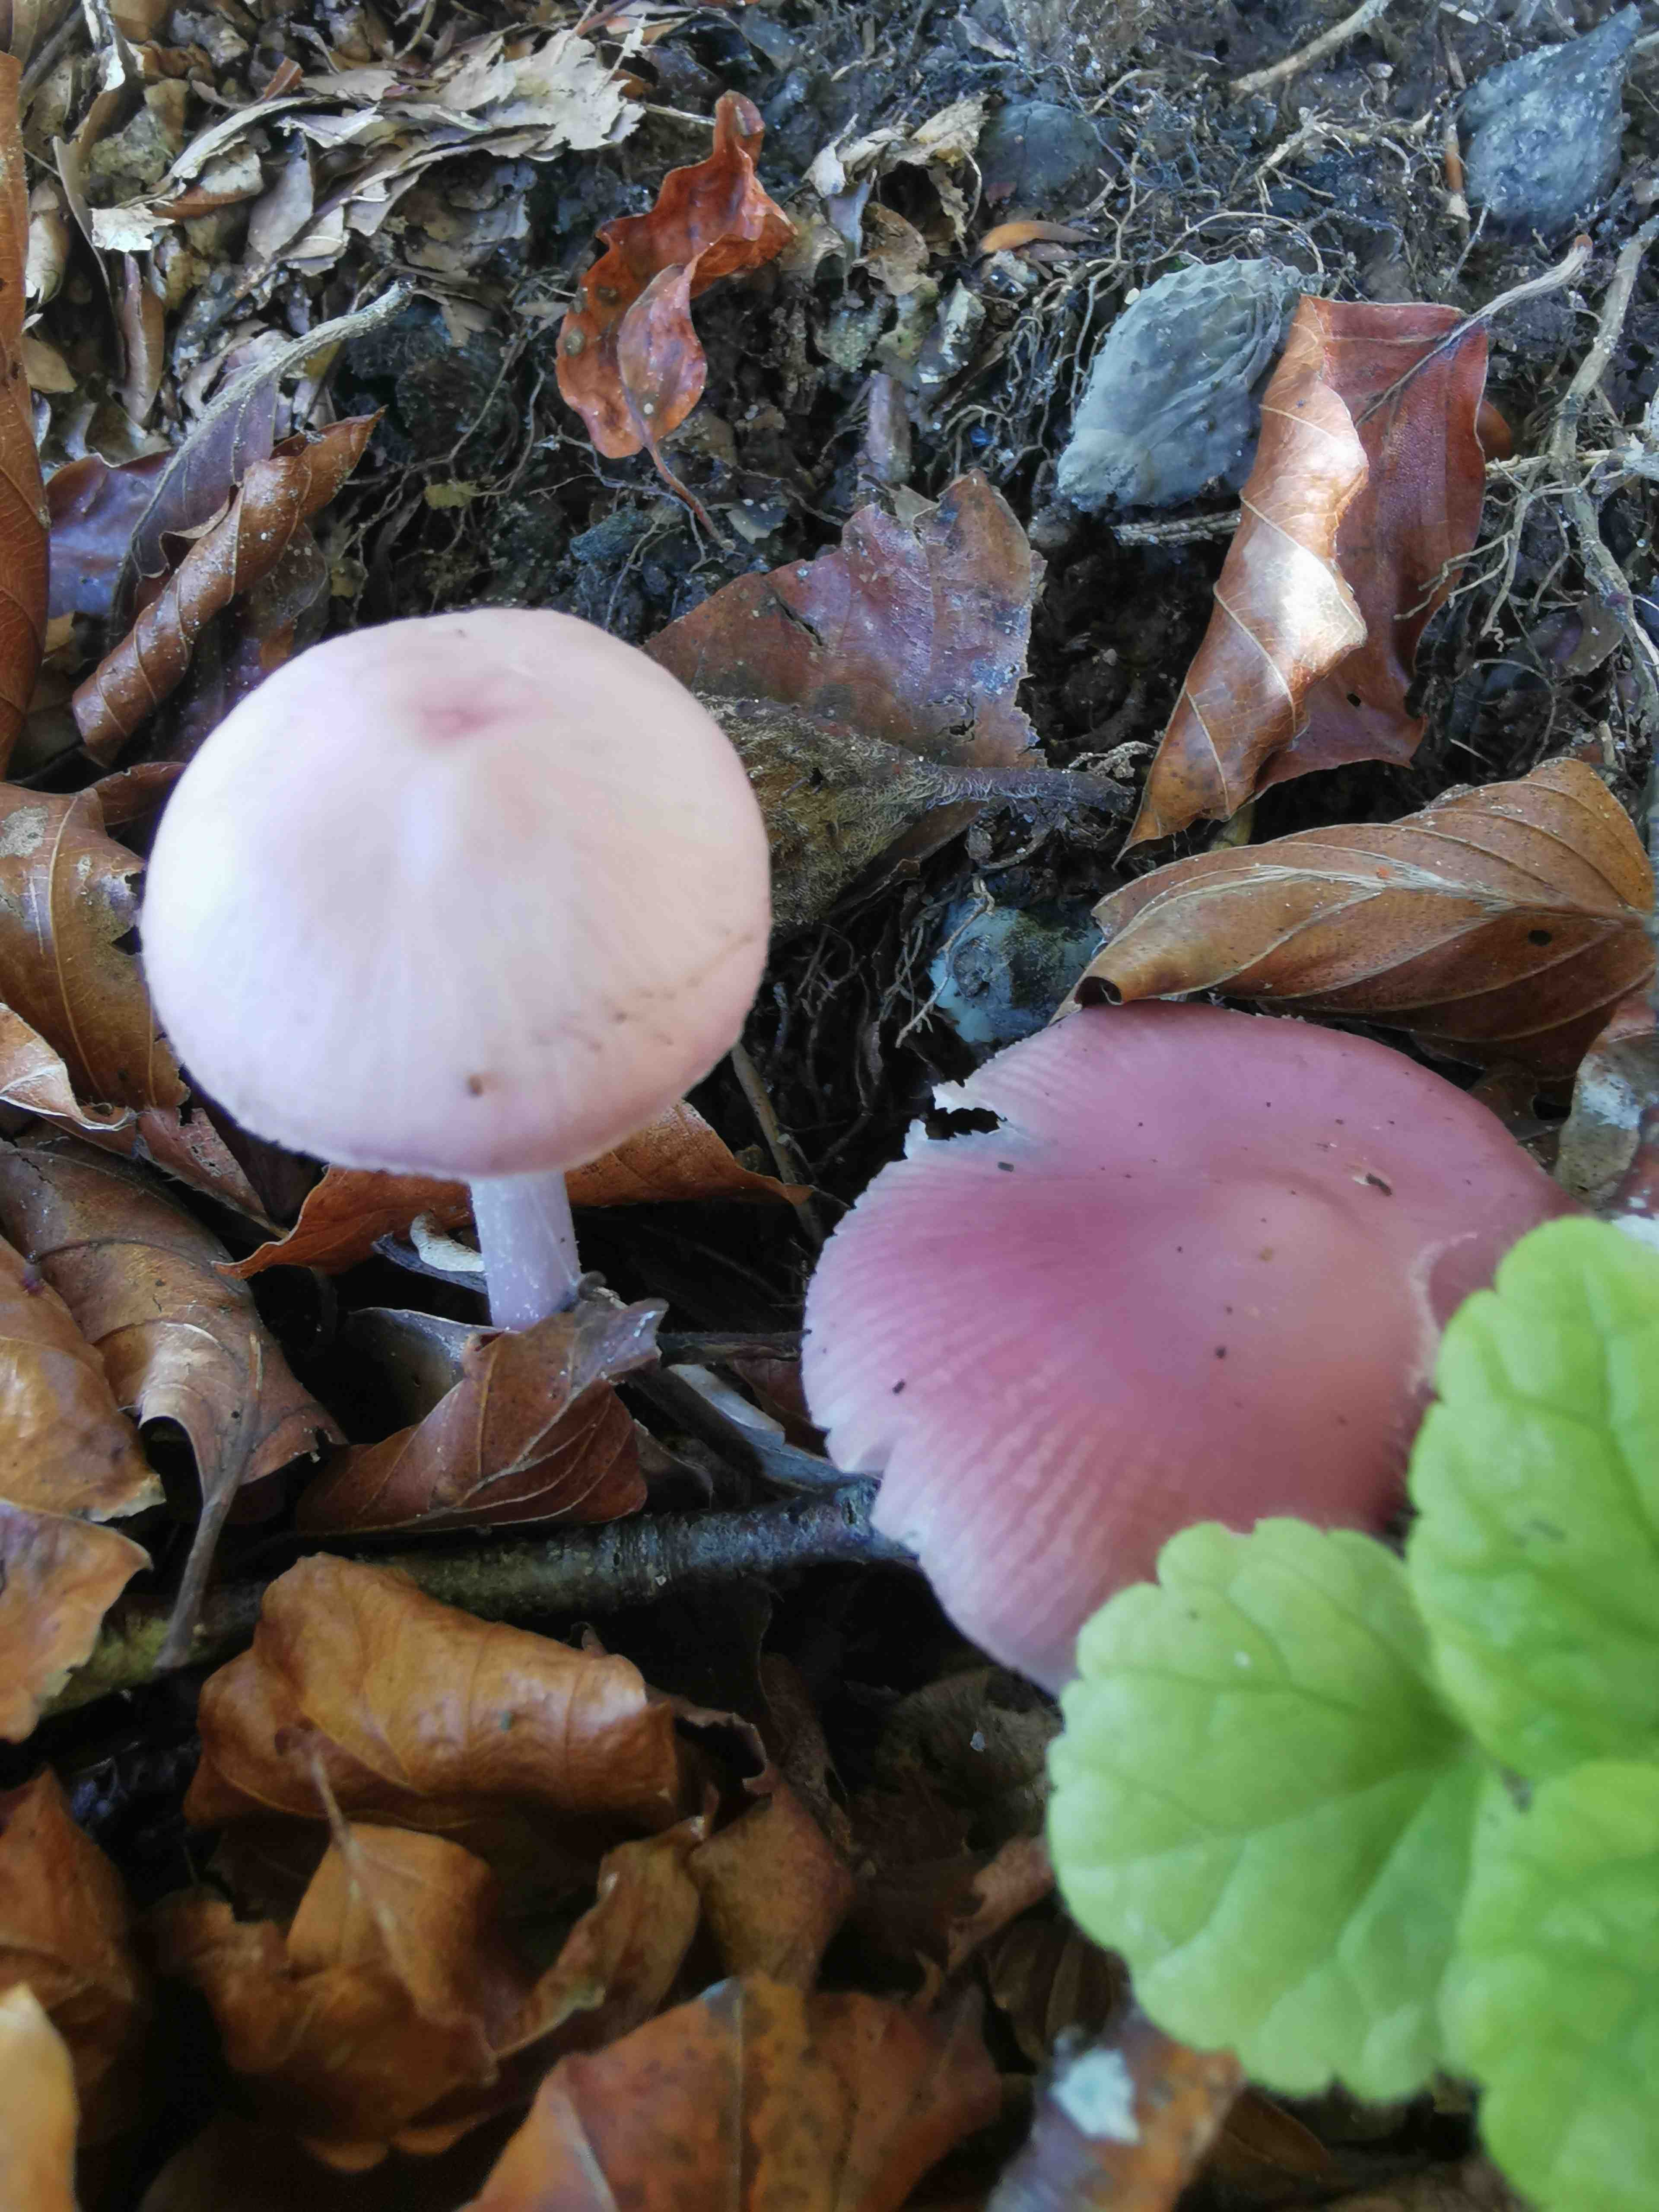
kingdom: Fungi
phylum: Basidiomycota
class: Agaricomycetes
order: Agaricales
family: Mycenaceae
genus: Mycena
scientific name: Mycena rosea
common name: rosa huesvamp
